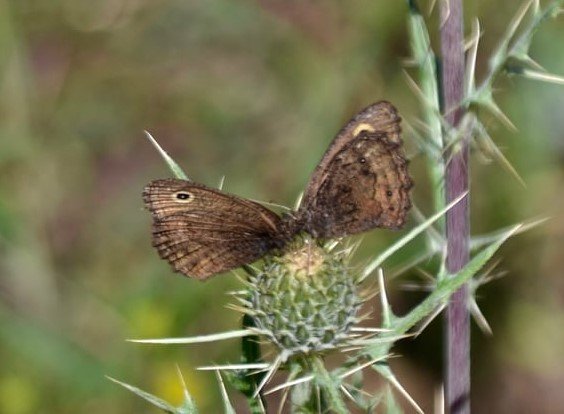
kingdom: Animalia
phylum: Arthropoda
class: Insecta
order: Lepidoptera
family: Nymphalidae
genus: Cercyonis
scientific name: Cercyonis oetus
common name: Small Wood-Nymph
